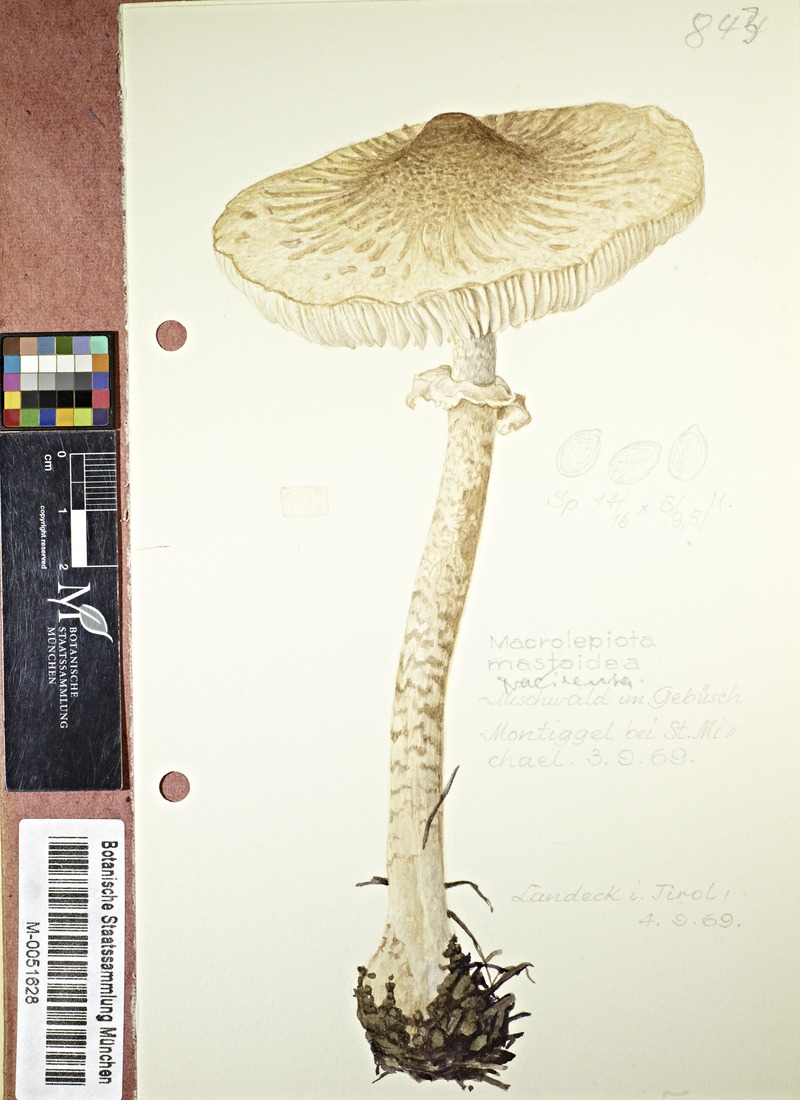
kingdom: Fungi
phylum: Basidiomycota
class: Agaricomycetes
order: Agaricales
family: Agaricaceae
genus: Macrolepiota
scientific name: Macrolepiota mastoidea
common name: Slender parasol
